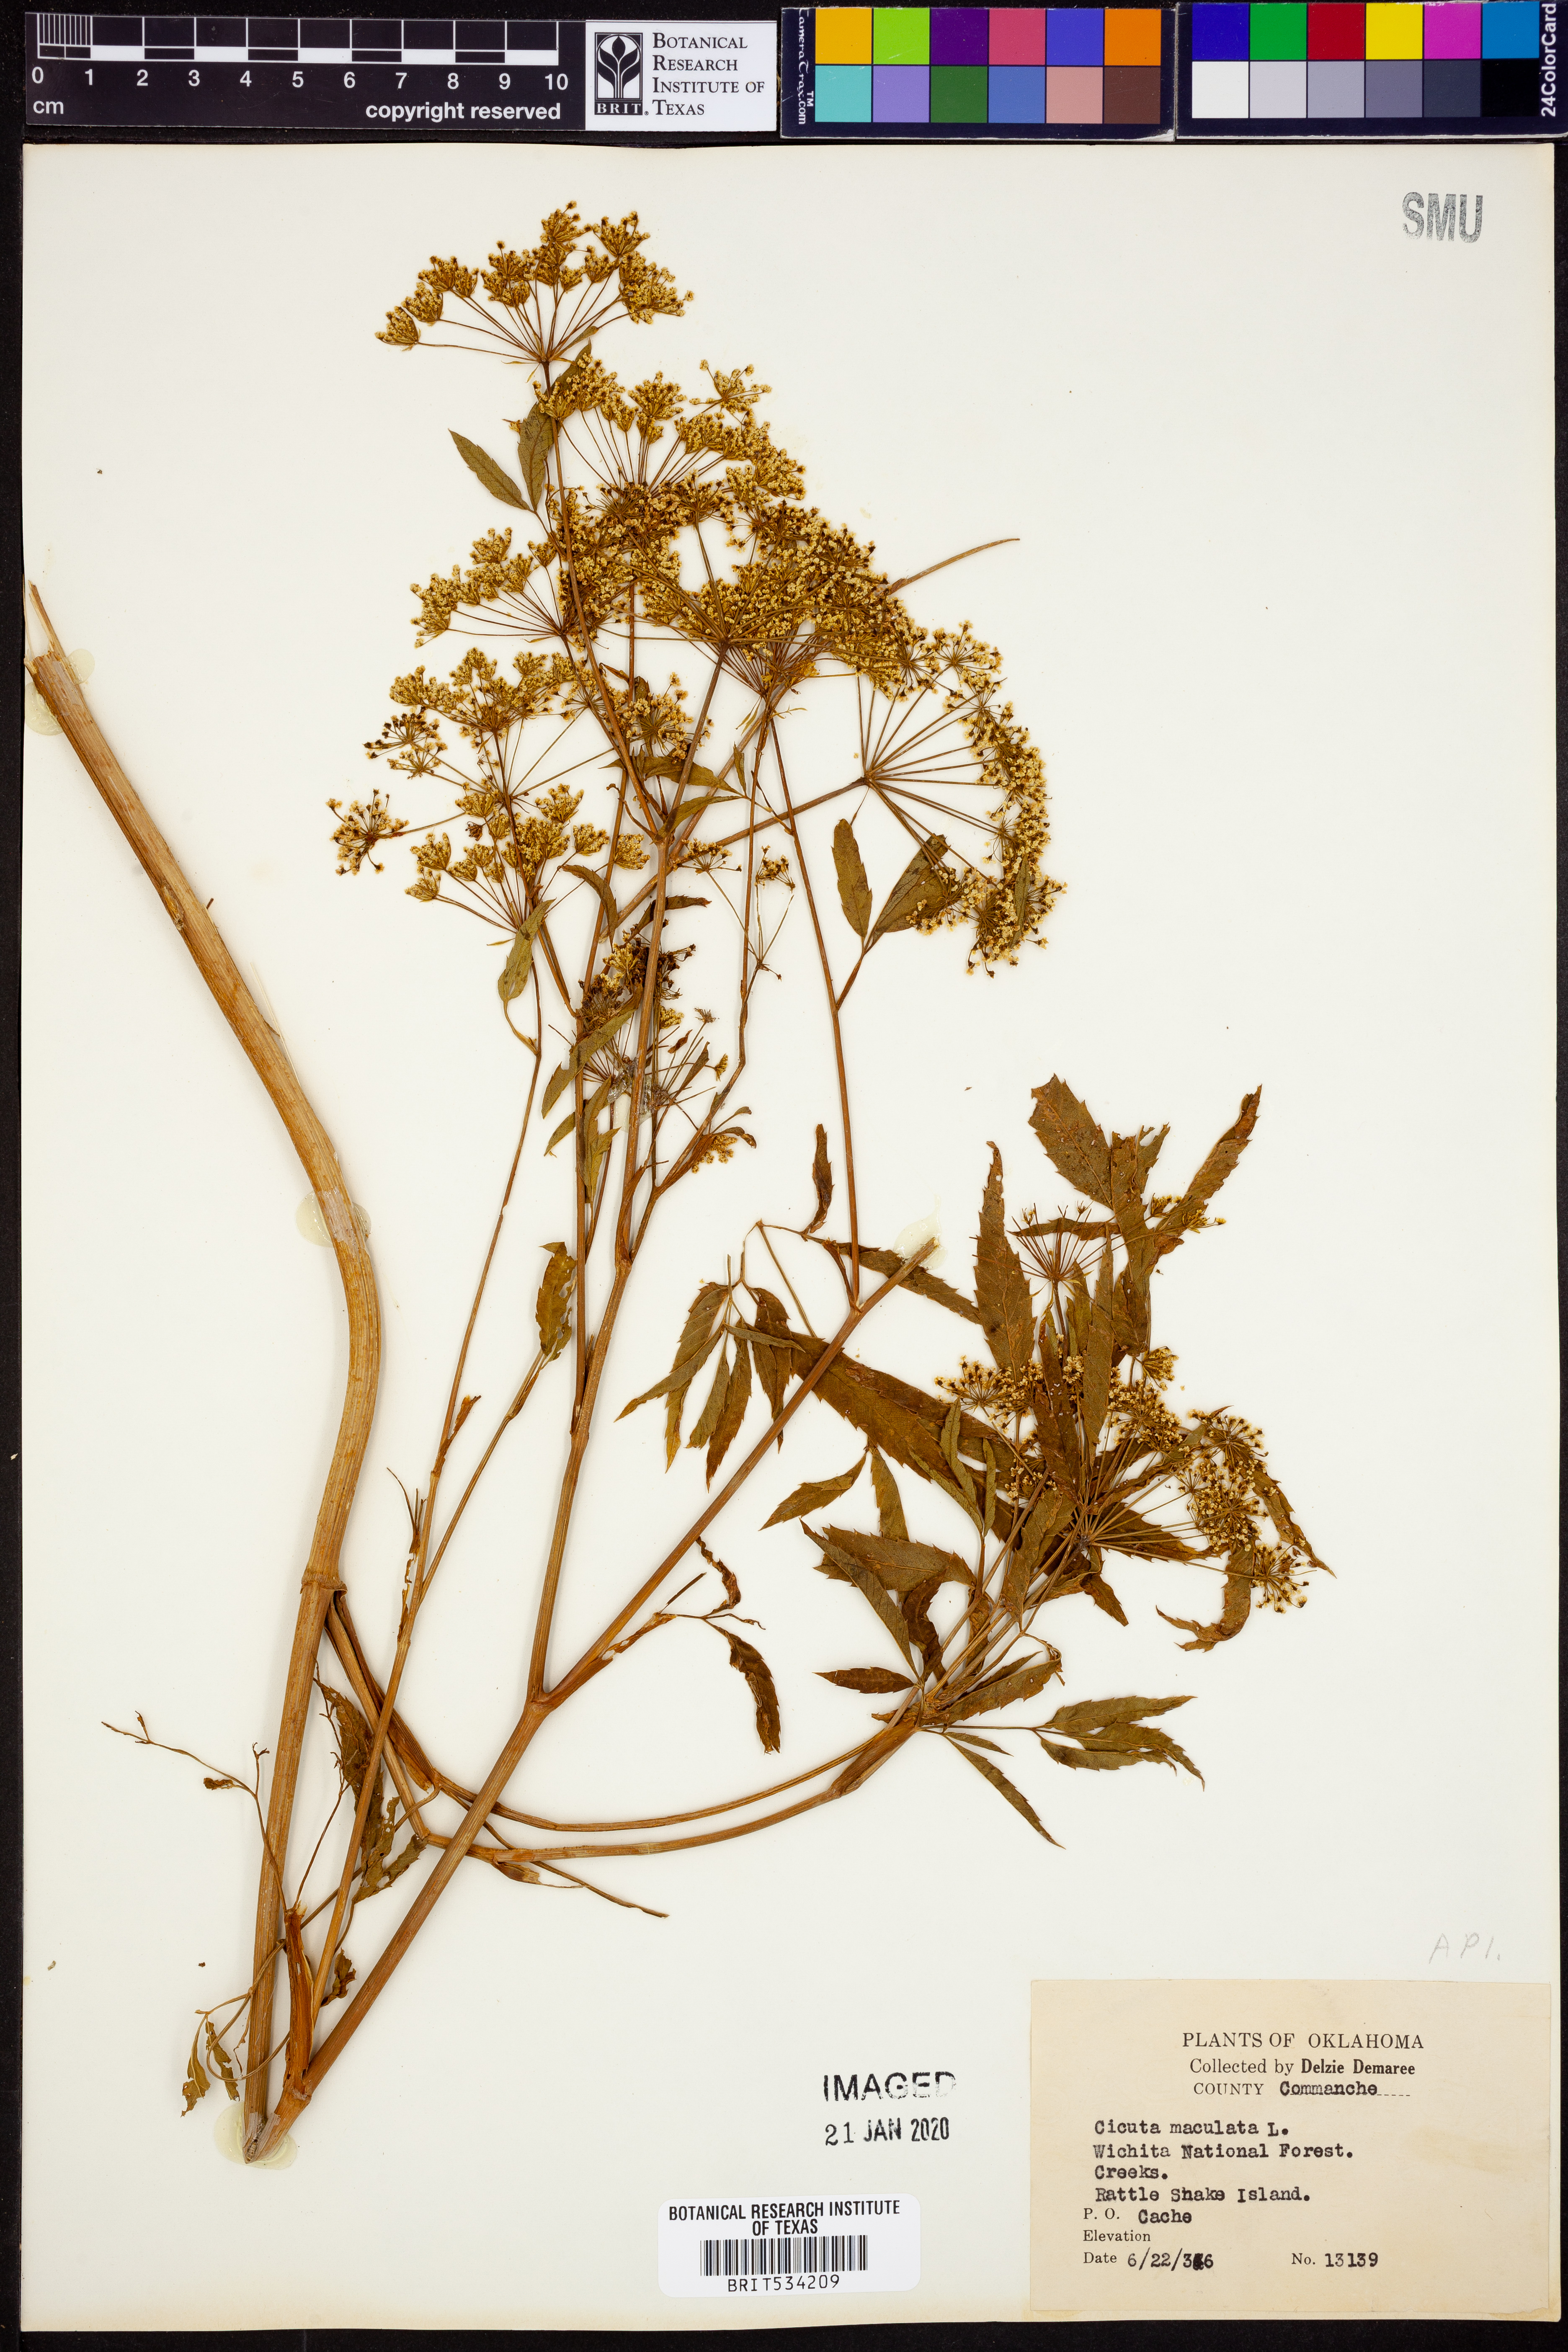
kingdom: Plantae
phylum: Tracheophyta
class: Magnoliopsida
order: Apiales
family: Apiaceae
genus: Cicuta
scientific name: Cicuta maculata
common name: Spotted cowbane
